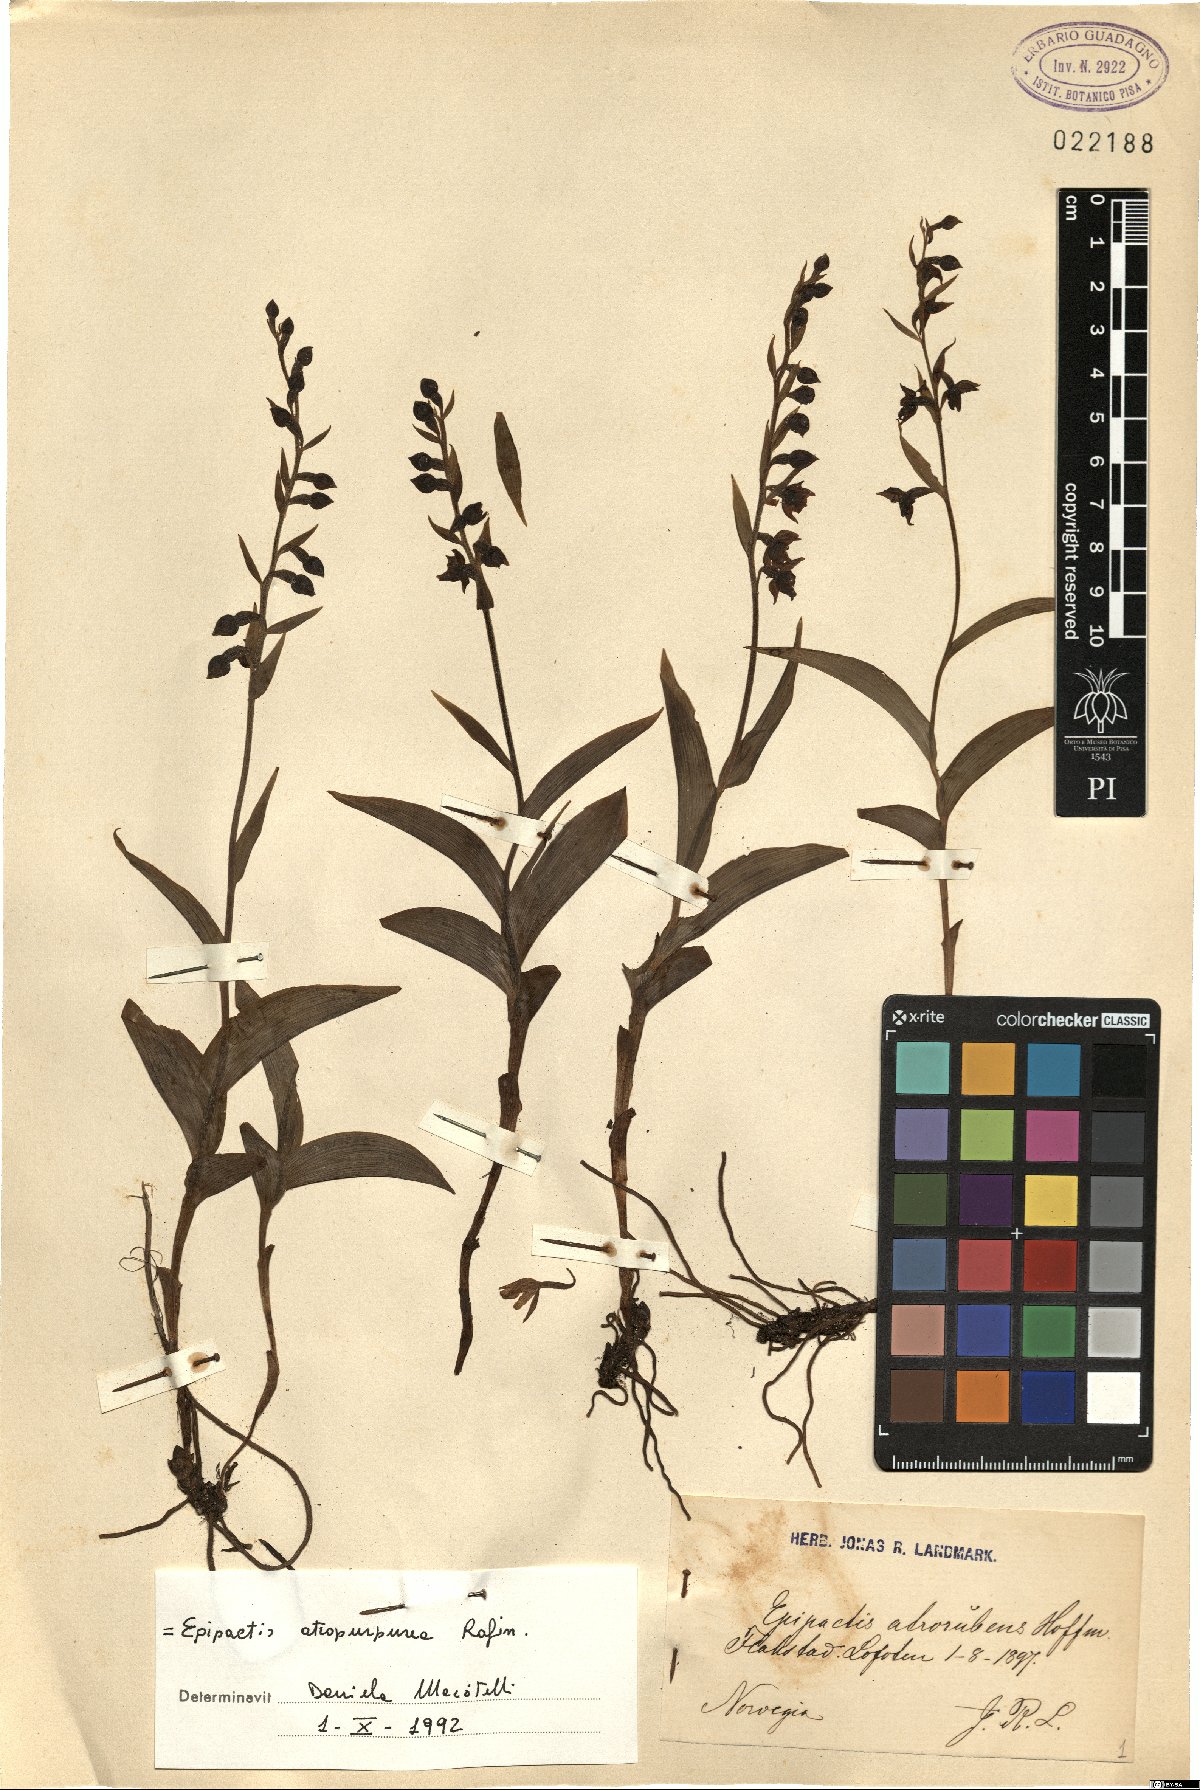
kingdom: Plantae
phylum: Tracheophyta
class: Liliopsida
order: Asparagales
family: Orchidaceae
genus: Epipactis
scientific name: Epipactis atrorubens
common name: Dark-red helleborine
